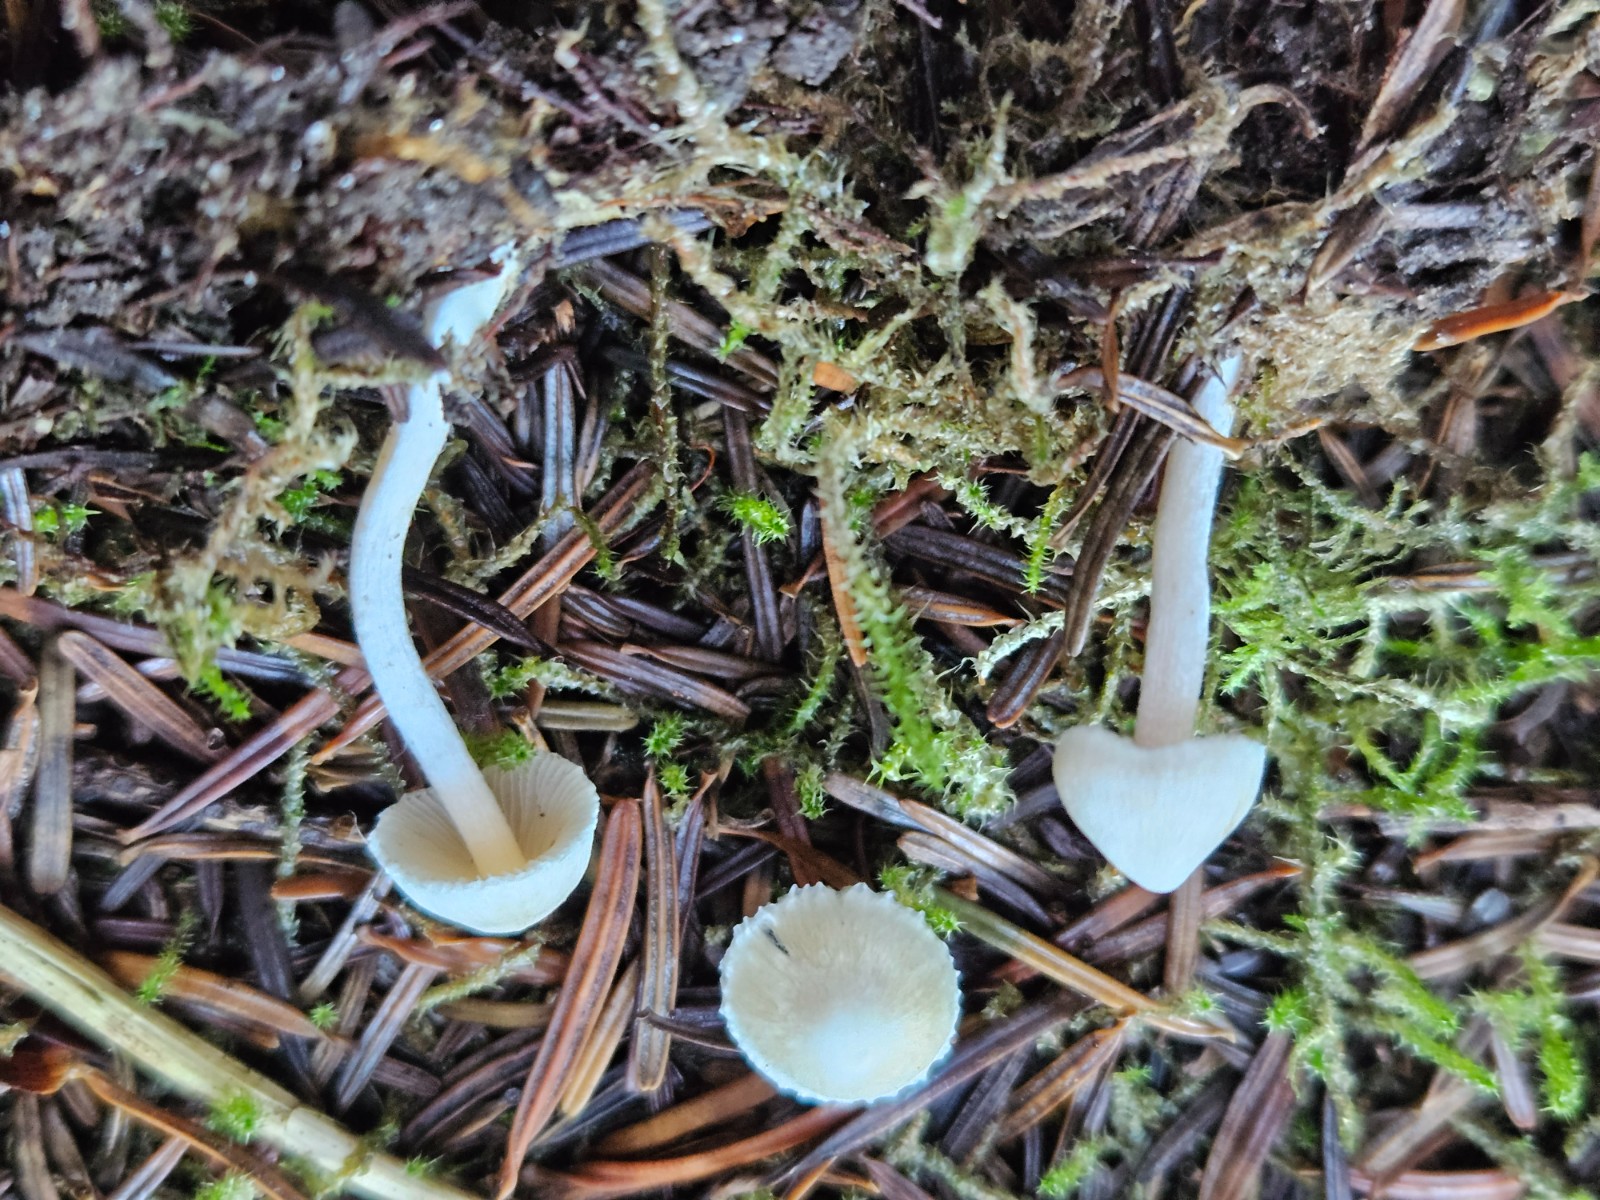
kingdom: Fungi
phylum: Basidiomycota
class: Agaricomycetes
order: Agaricales
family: Inocybaceae
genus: Inocybe
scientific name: Inocybe
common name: almindelig trævlhat
